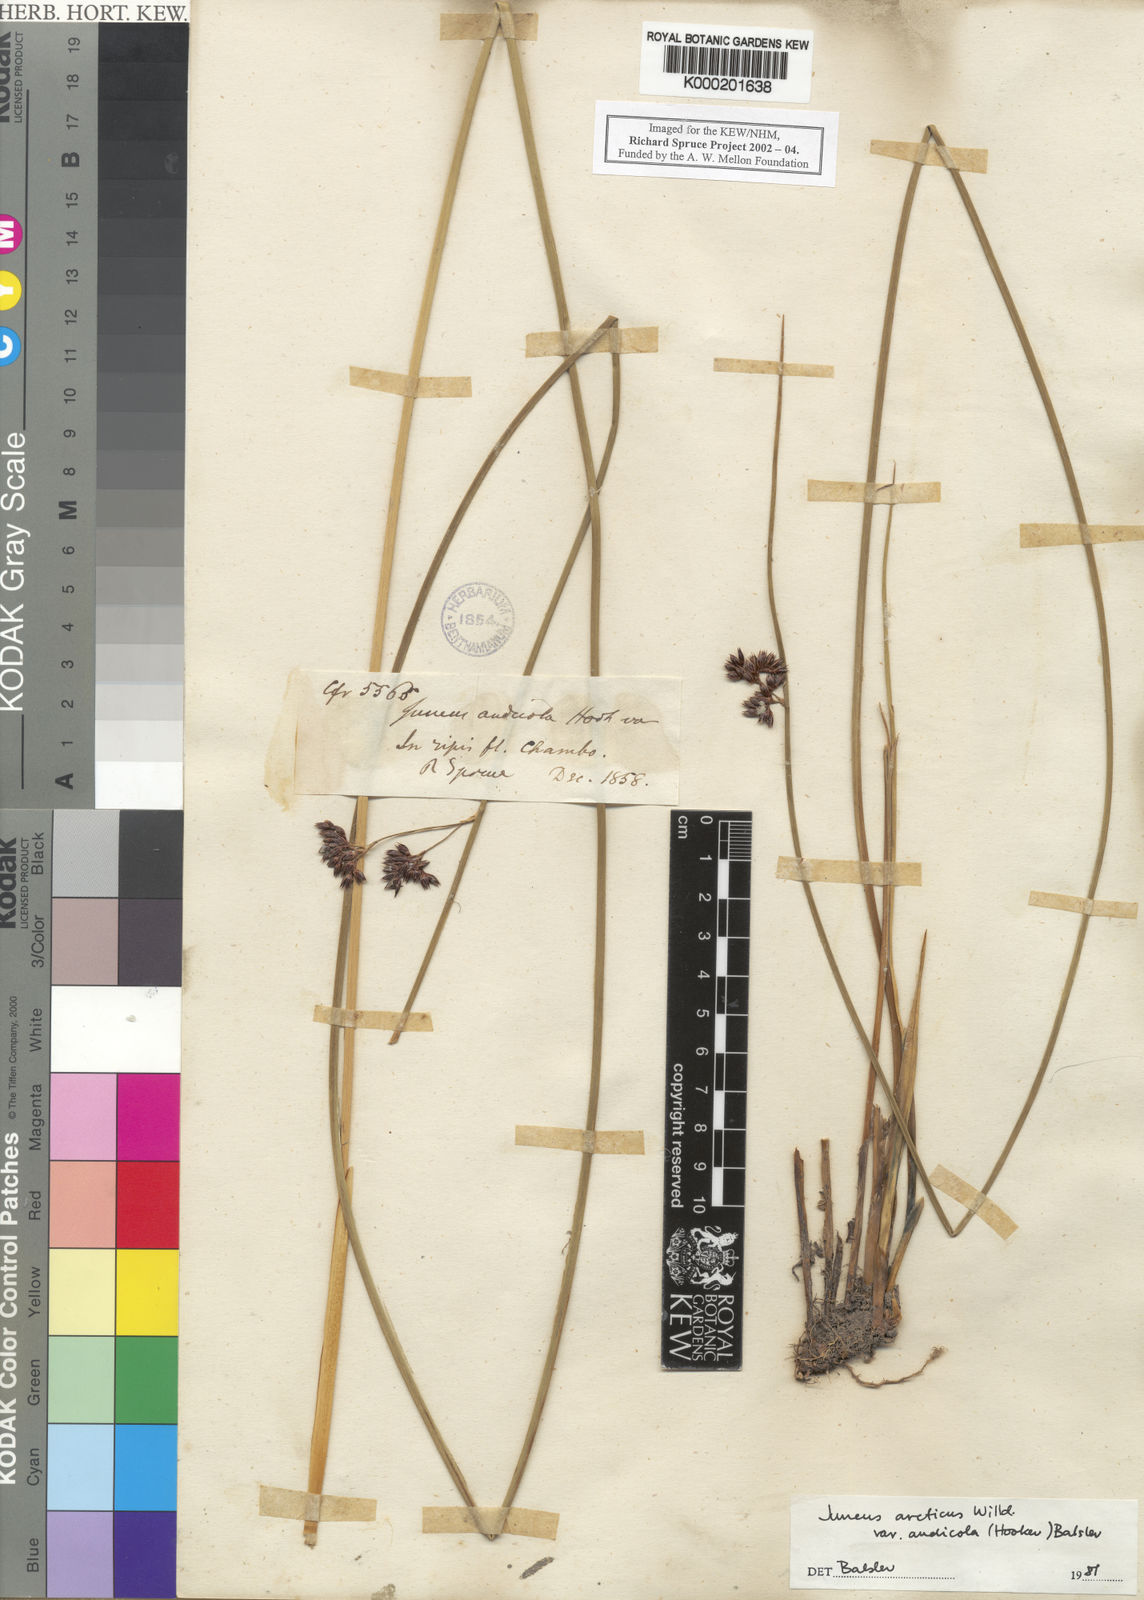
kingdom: Plantae
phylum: Tracheophyta
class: Liliopsida
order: Poales
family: Juncaceae
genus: Juncus
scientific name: Juncus balticus
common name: Baltic rush
